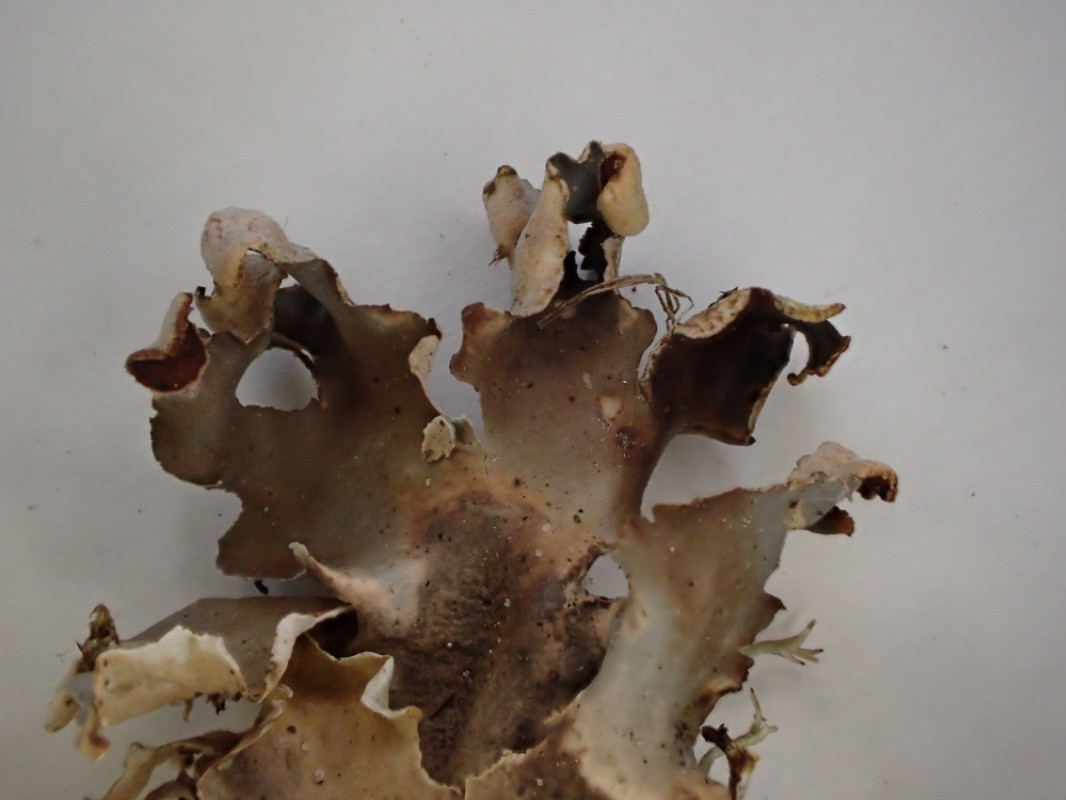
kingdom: Fungi
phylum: Ascomycota
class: Lecanoromycetes
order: Peltigerales
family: Peltigeraceae
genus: Peltigera
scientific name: Peltigera hymenina
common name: hinde-skjoldlav
